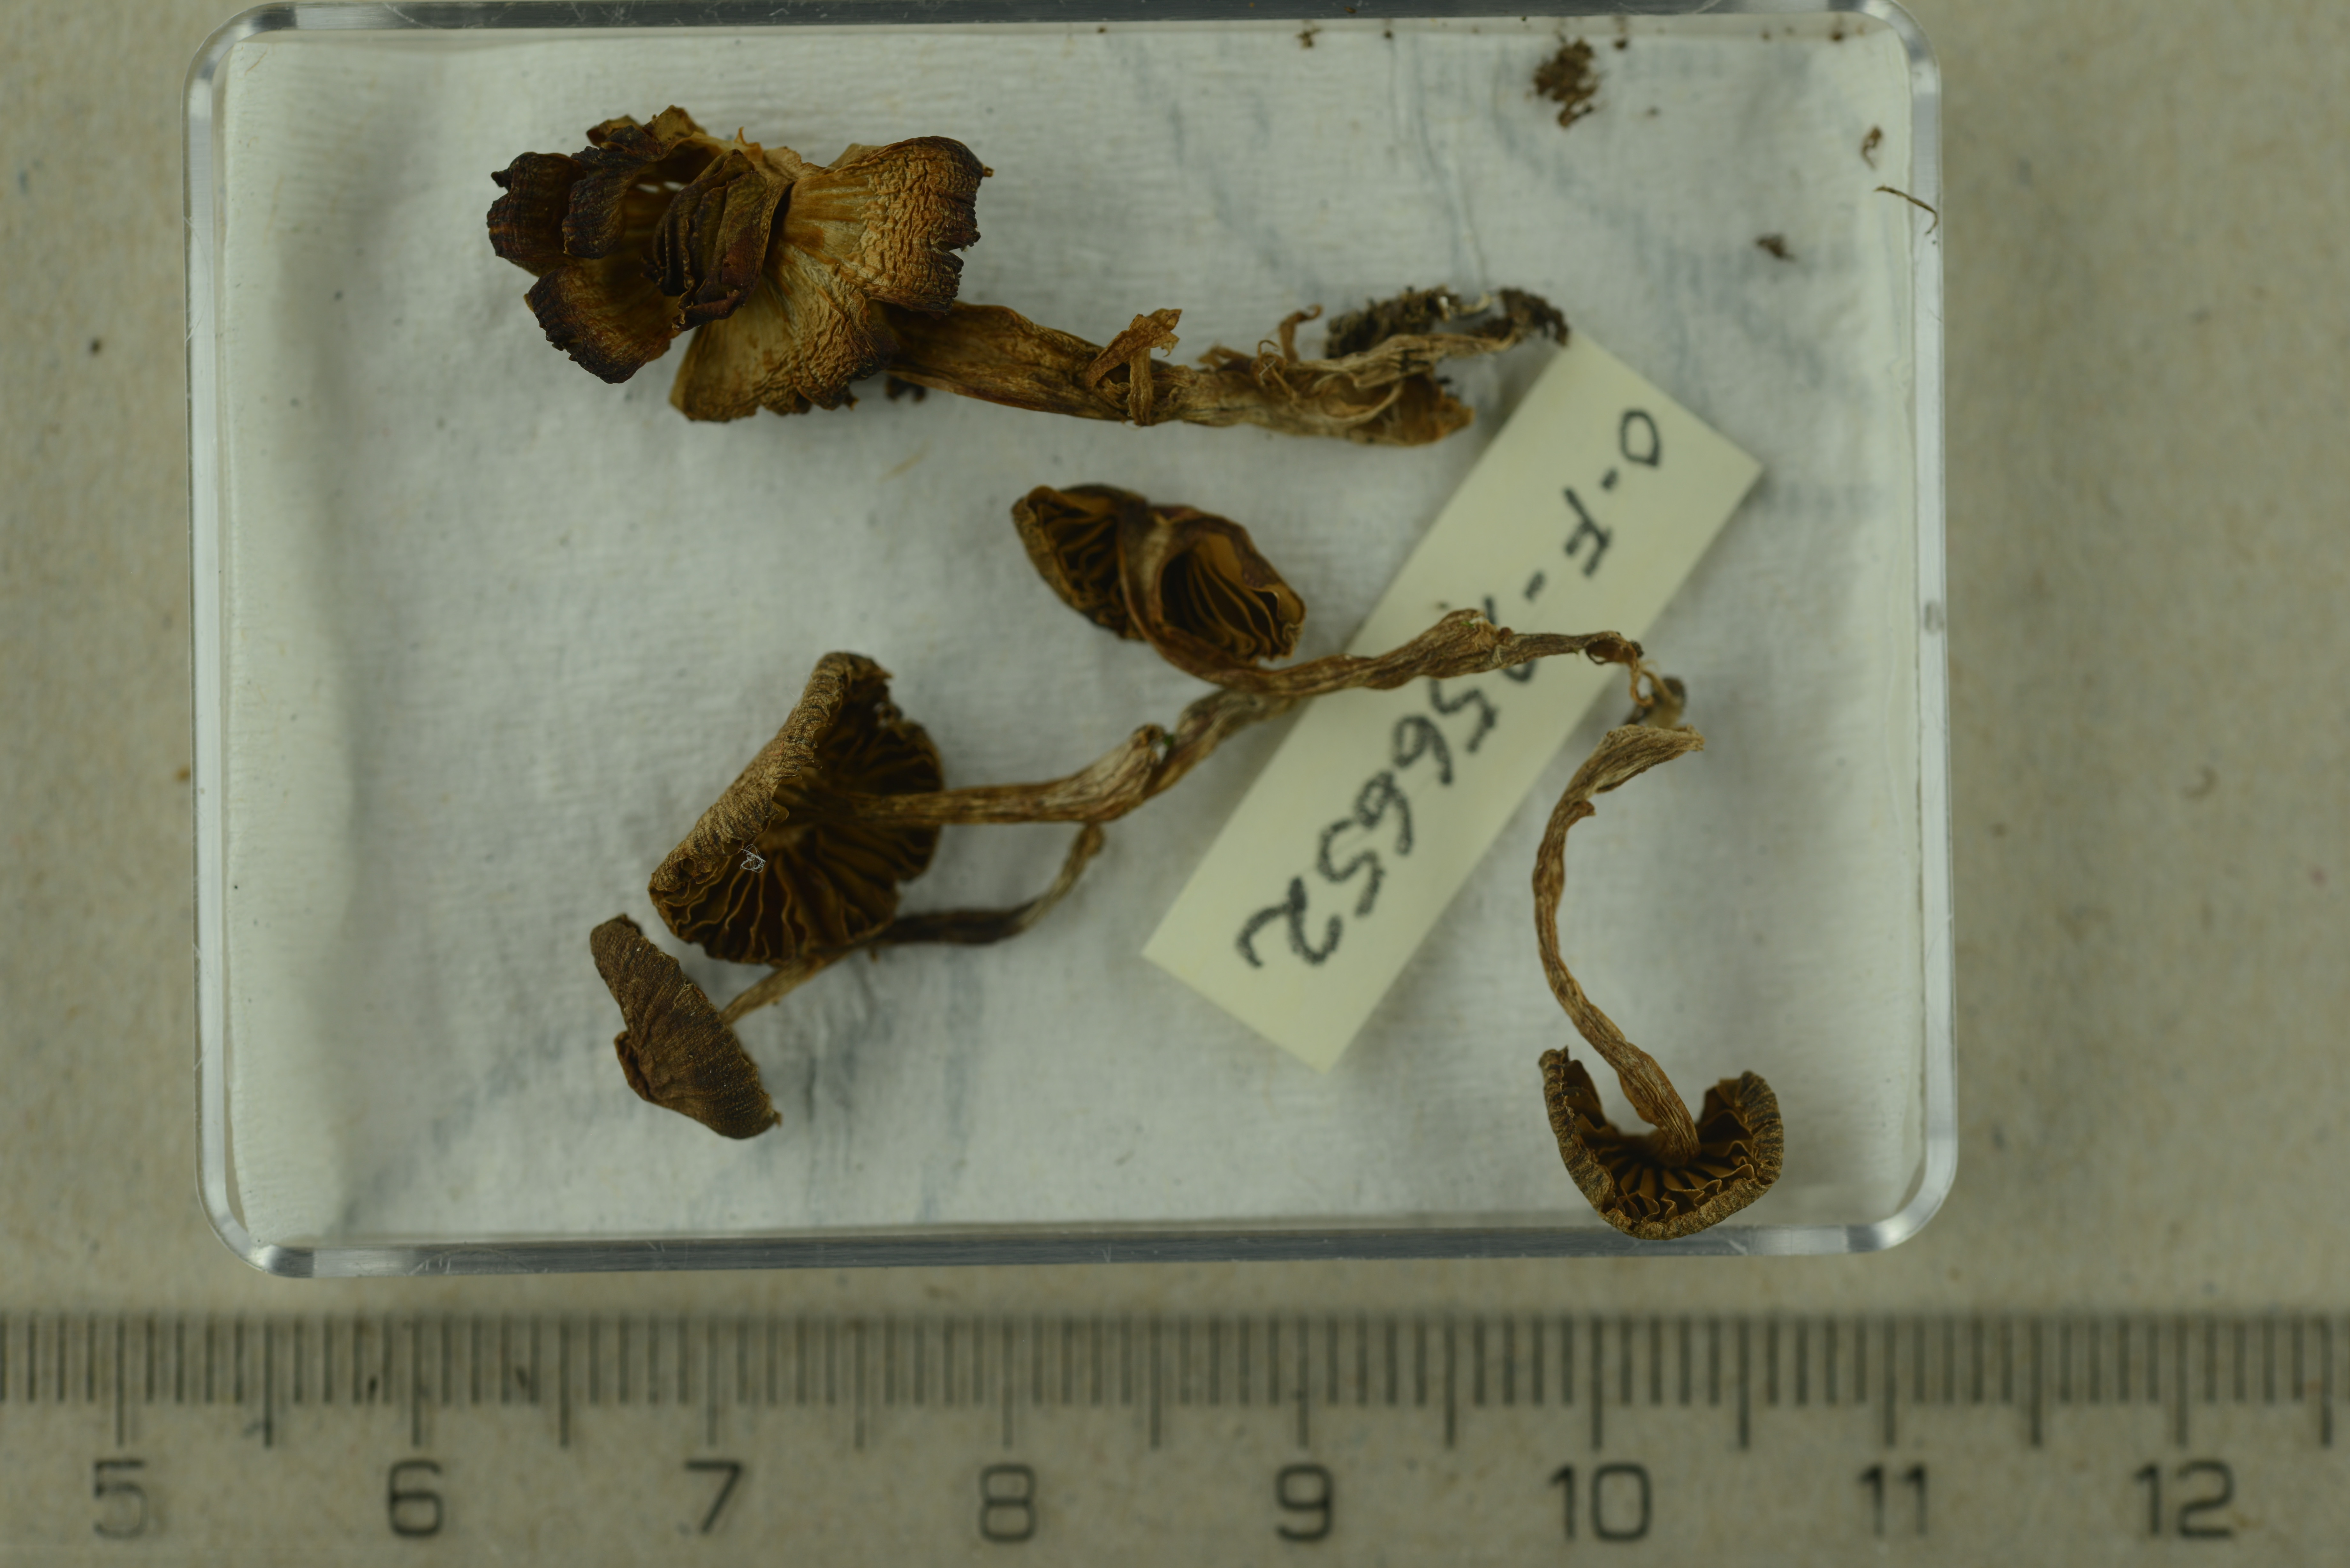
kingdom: Fungi
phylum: Basidiomycota
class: Agaricomycetes
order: Agaricales
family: Cortinariaceae
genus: Cortinarius
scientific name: Cortinarius obtusus
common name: Blunt webcap
